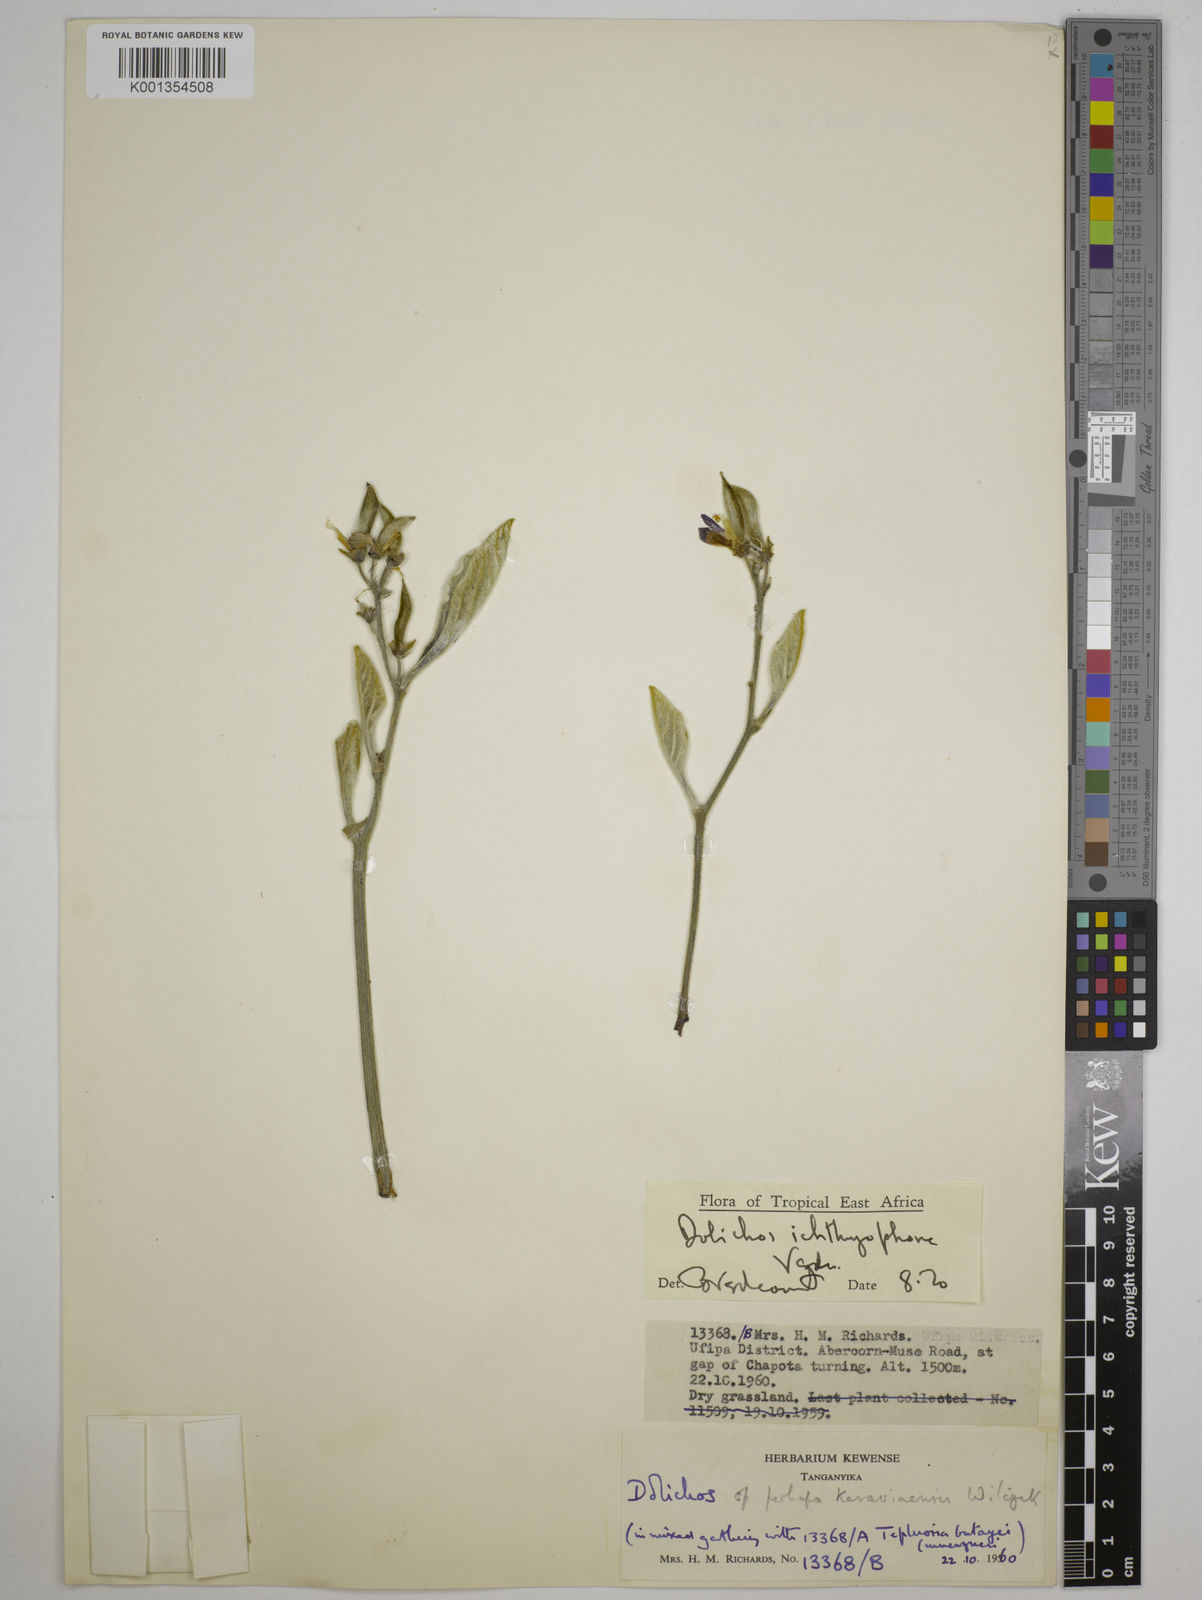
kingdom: Plantae
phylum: Tracheophyta
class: Magnoliopsida
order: Fabales
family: Fabaceae
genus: Dolichos
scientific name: Dolichos ichthyophone
